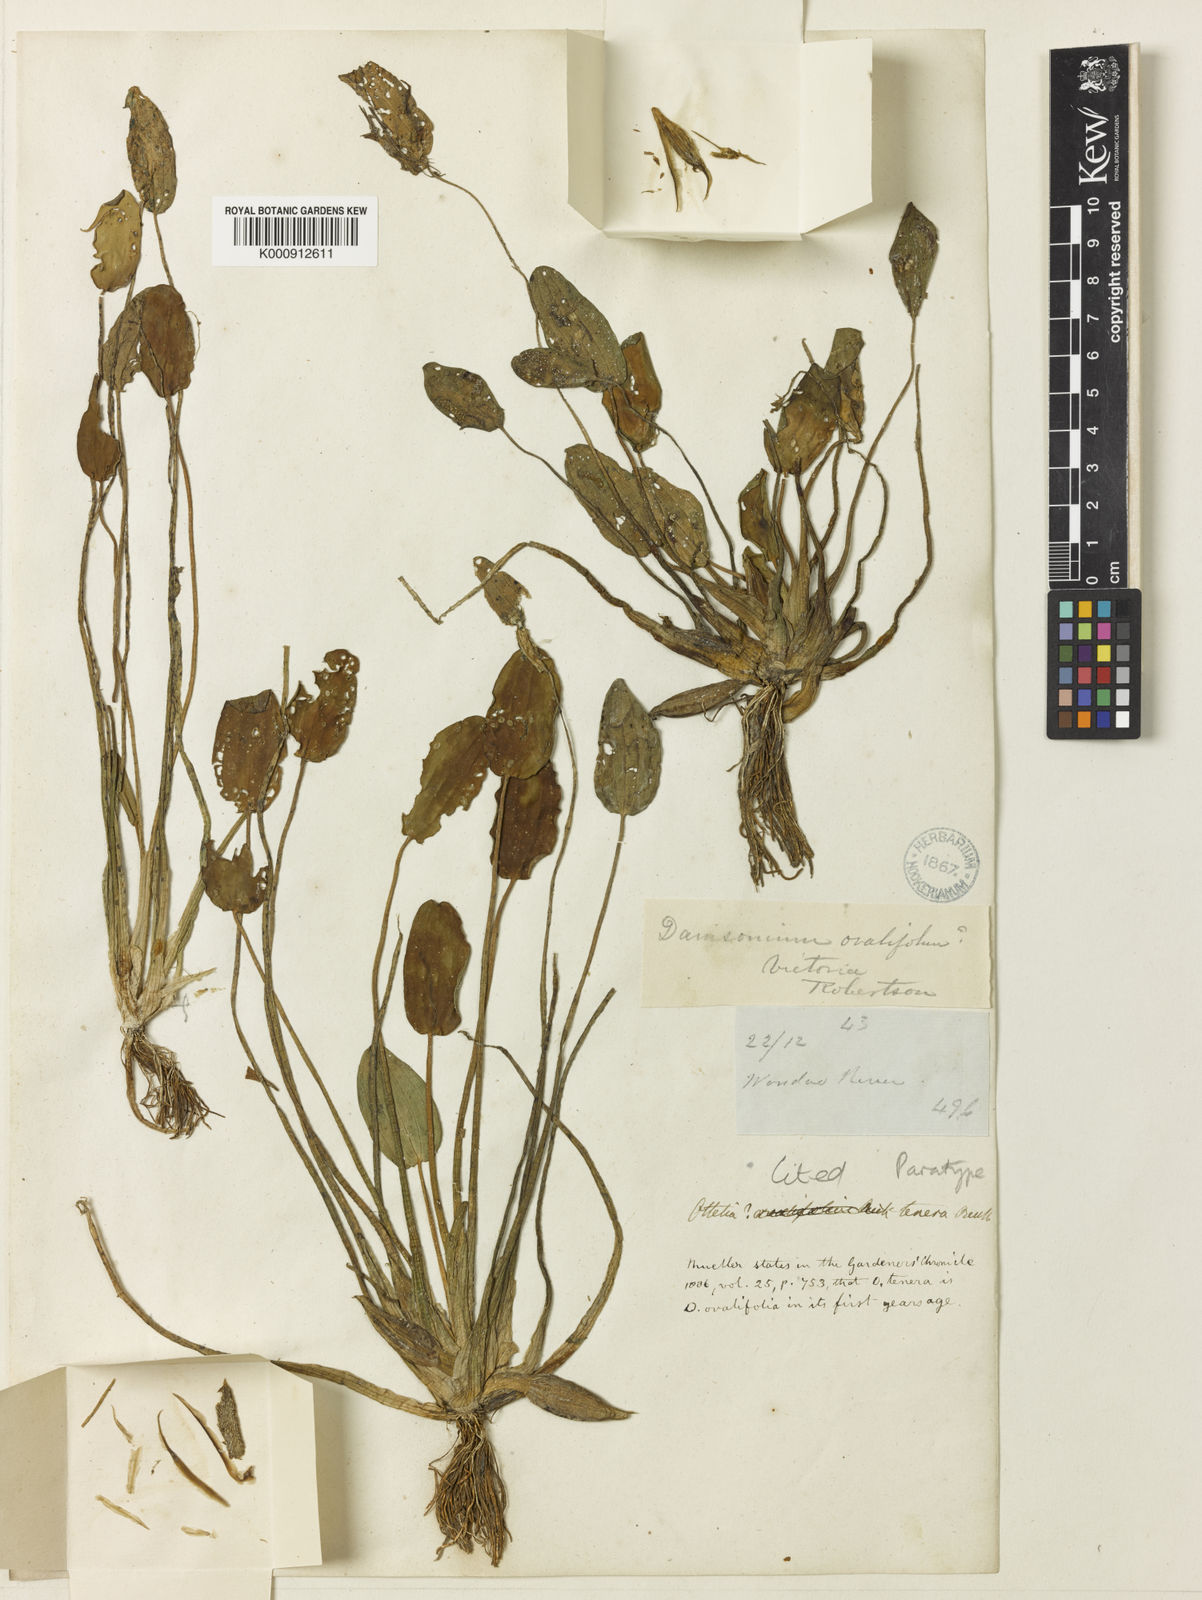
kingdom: Plantae
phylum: Tracheophyta
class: Liliopsida
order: Alismatales
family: Hydrocharitaceae
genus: Ottelia
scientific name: Ottelia ovalifolia
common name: Swamp-lily
